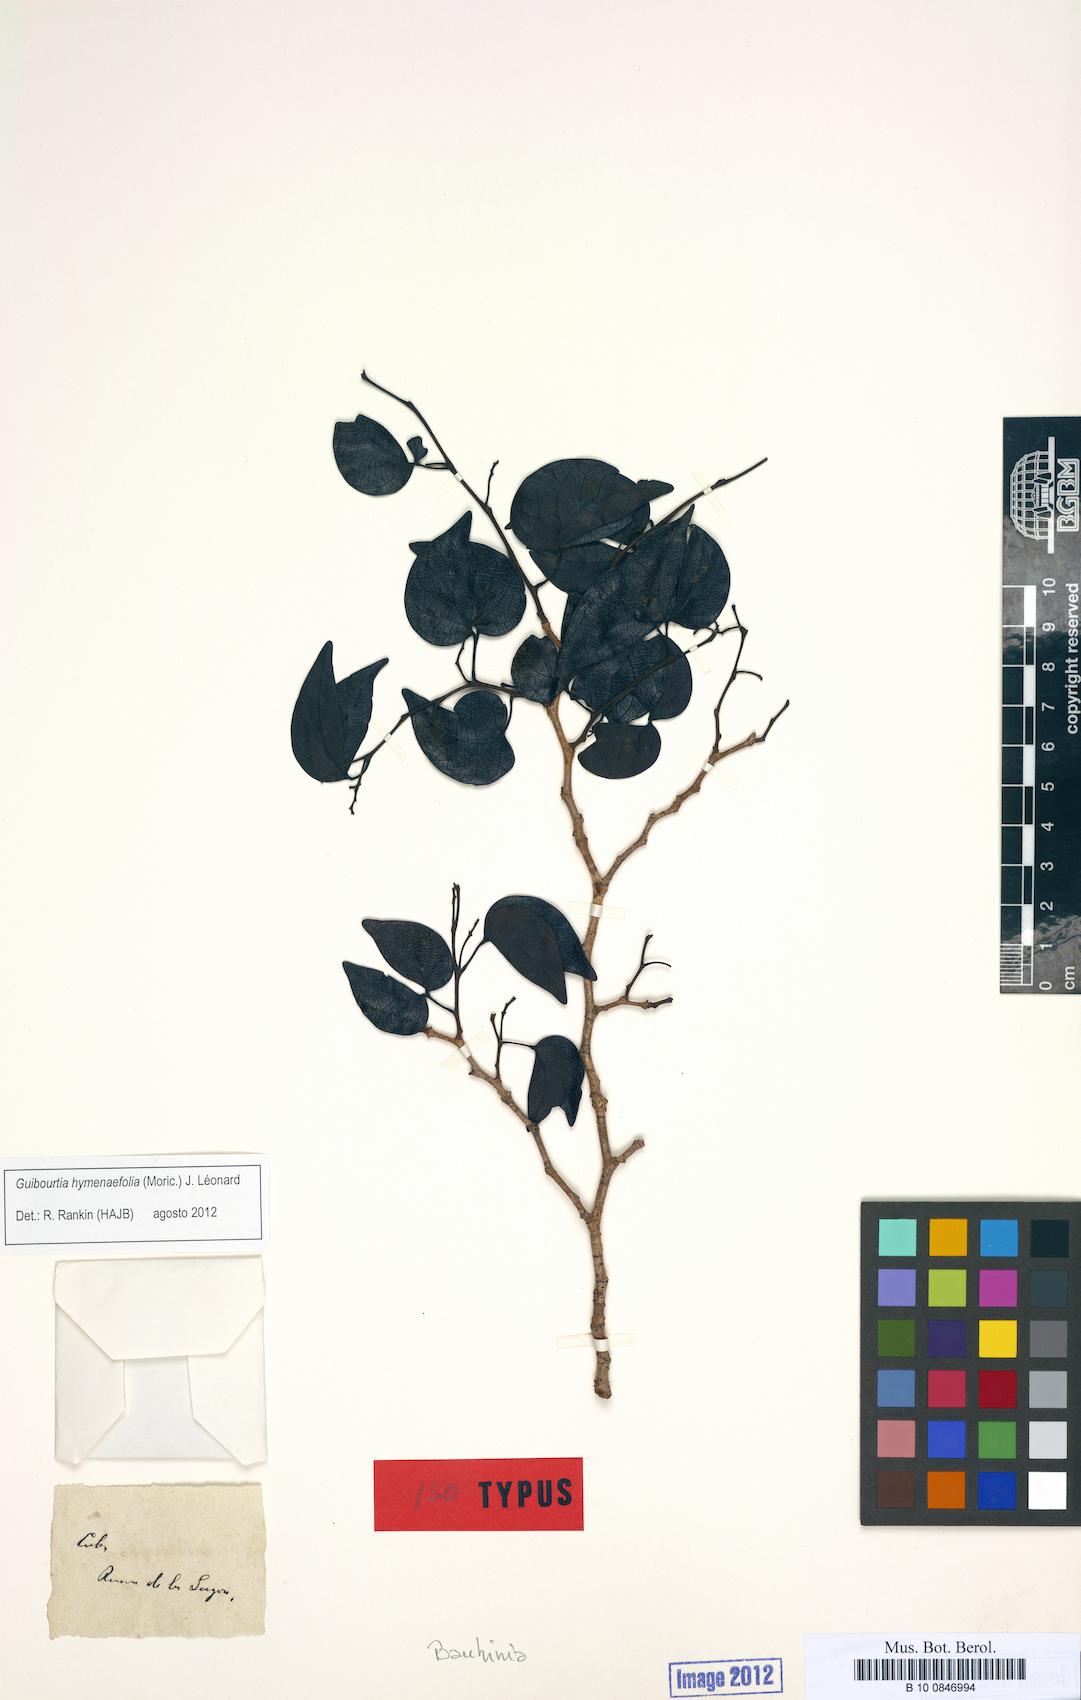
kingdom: Plantae
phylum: Tracheophyta
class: Magnoliopsida
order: Fabales
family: Fabaceae
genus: Guibourtia
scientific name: Guibourtia hymenaefolia
